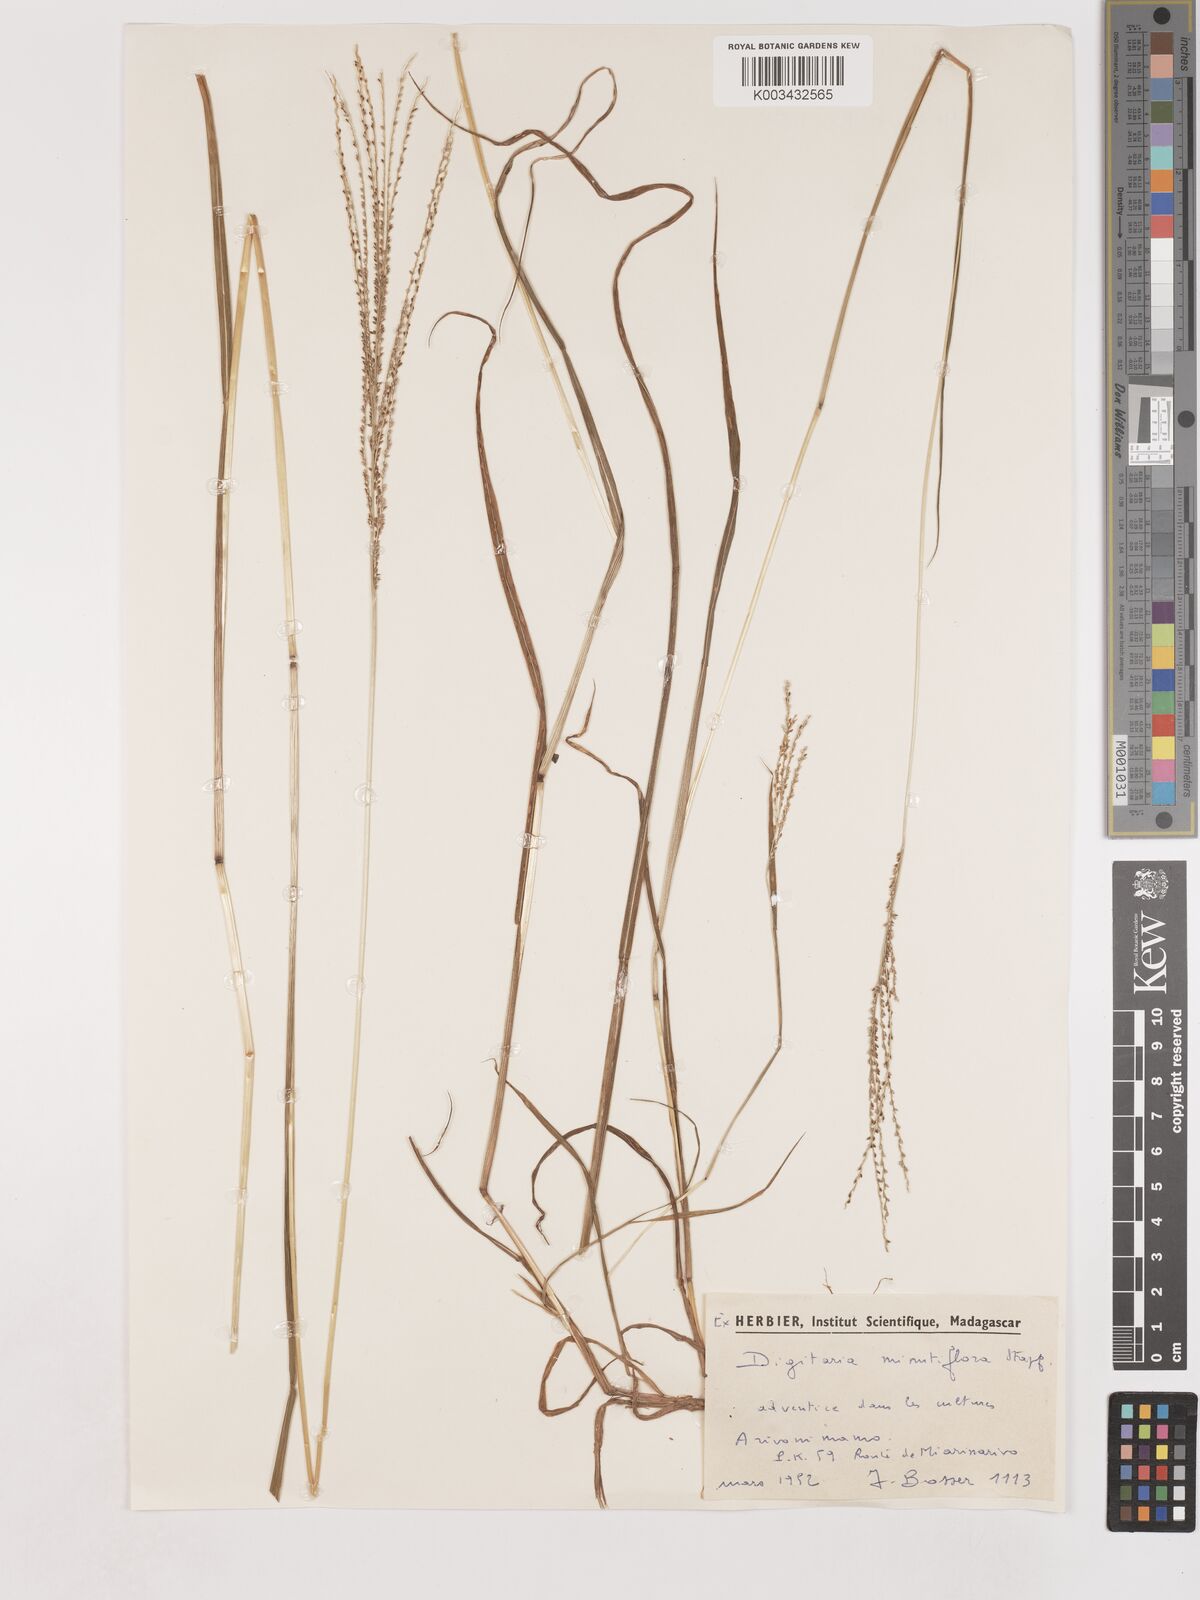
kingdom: Plantae
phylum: Tracheophyta
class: Liliopsida
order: Poales
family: Poaceae
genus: Digitaria
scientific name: Digitaria pseudodiagonalis
